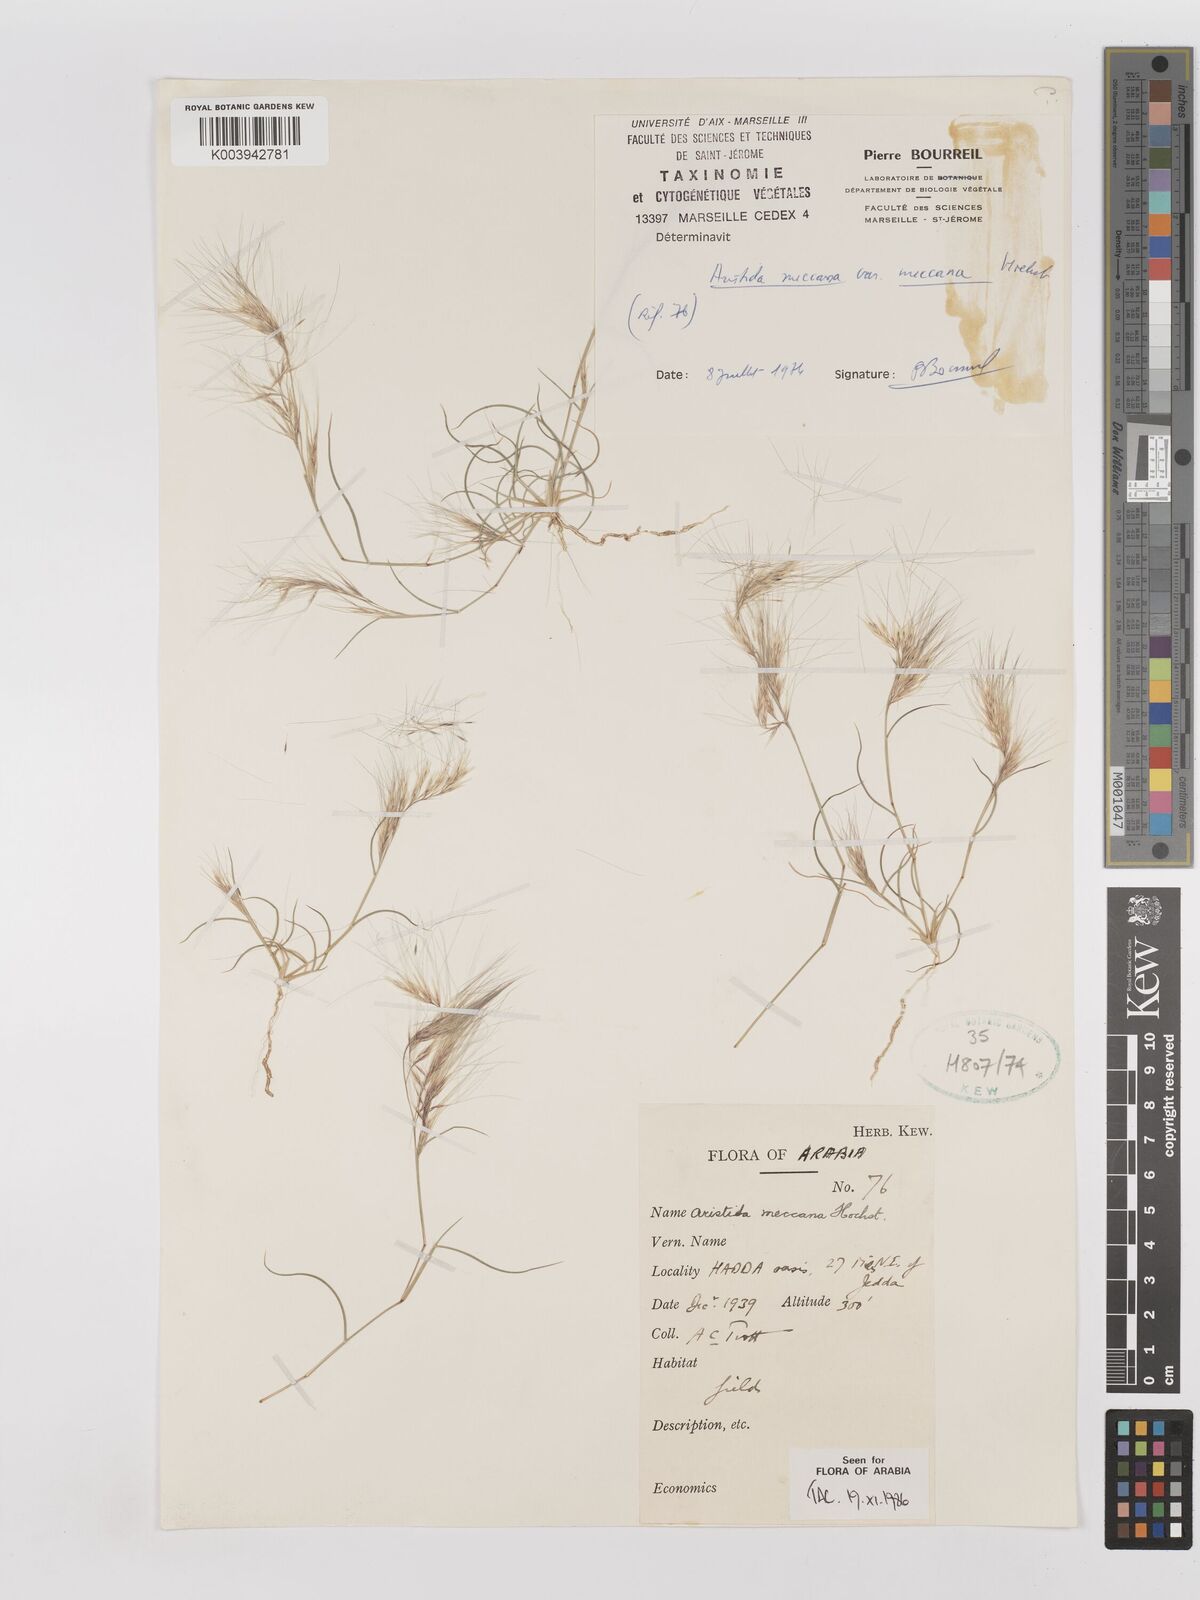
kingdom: Plantae
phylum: Tracheophyta
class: Liliopsida
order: Poales
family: Poaceae
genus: Aristida
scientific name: Aristida mutabilis
